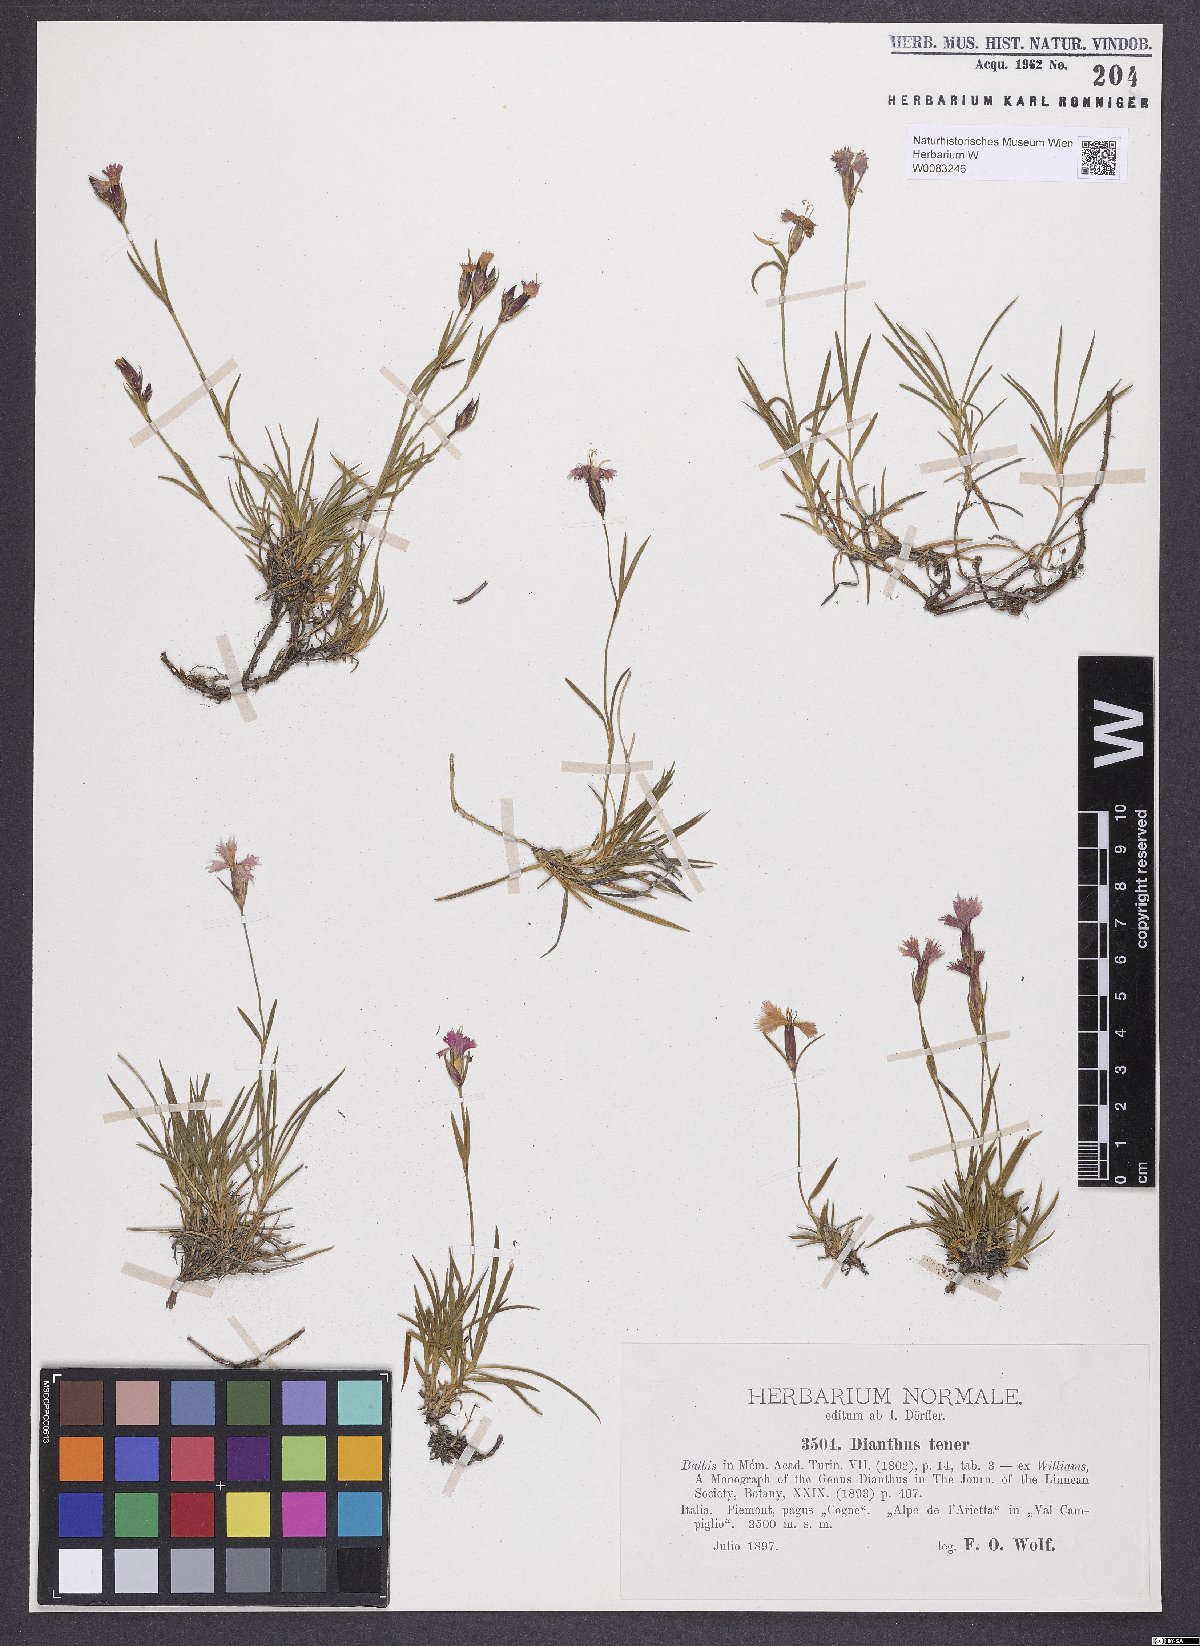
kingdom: Plantae
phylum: Tracheophyta
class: Magnoliopsida
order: Caryophyllales
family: Caryophyllaceae
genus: Dianthus
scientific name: Dianthus furcatus
